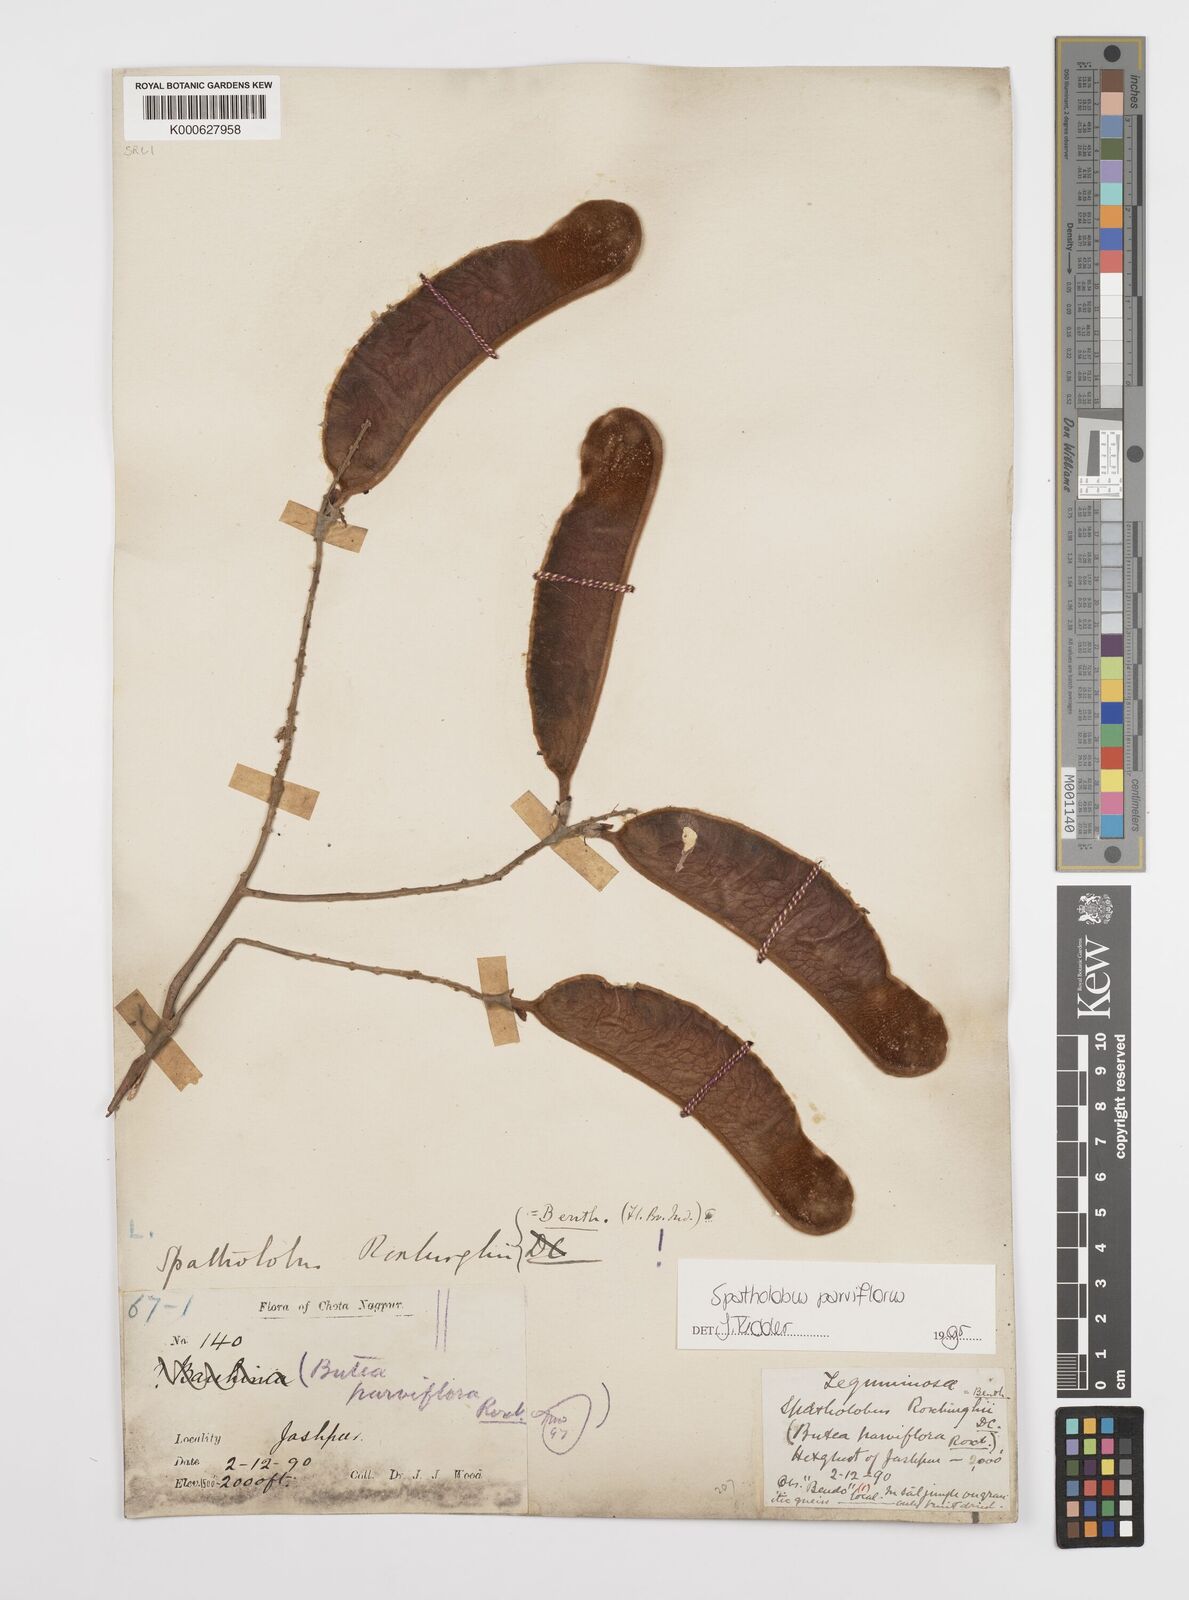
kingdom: Plantae
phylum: Tracheophyta
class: Magnoliopsida
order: Fabales
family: Fabaceae
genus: Spatholobus
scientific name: Spatholobus parviflorus
